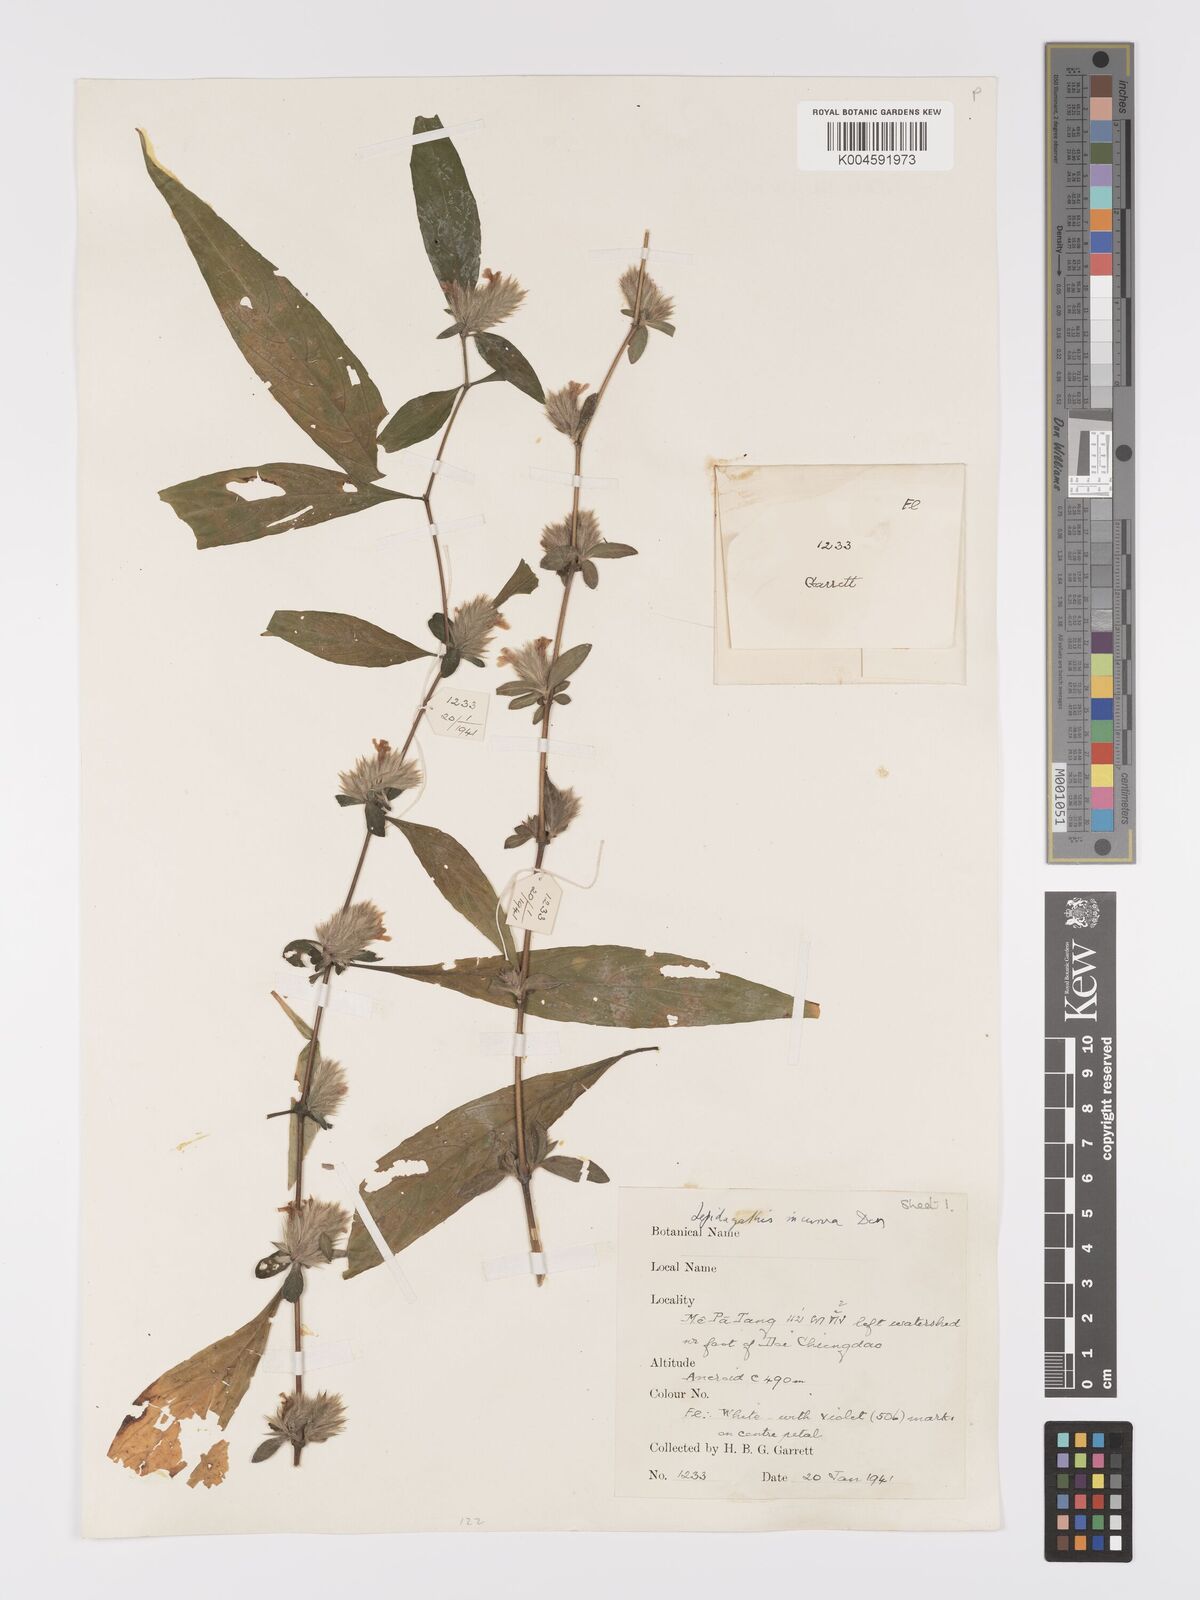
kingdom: Plantae
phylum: Tracheophyta
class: Magnoliopsida
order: Lamiales
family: Acanthaceae
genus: Lepidagathis
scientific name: Lepidagathis incurva
